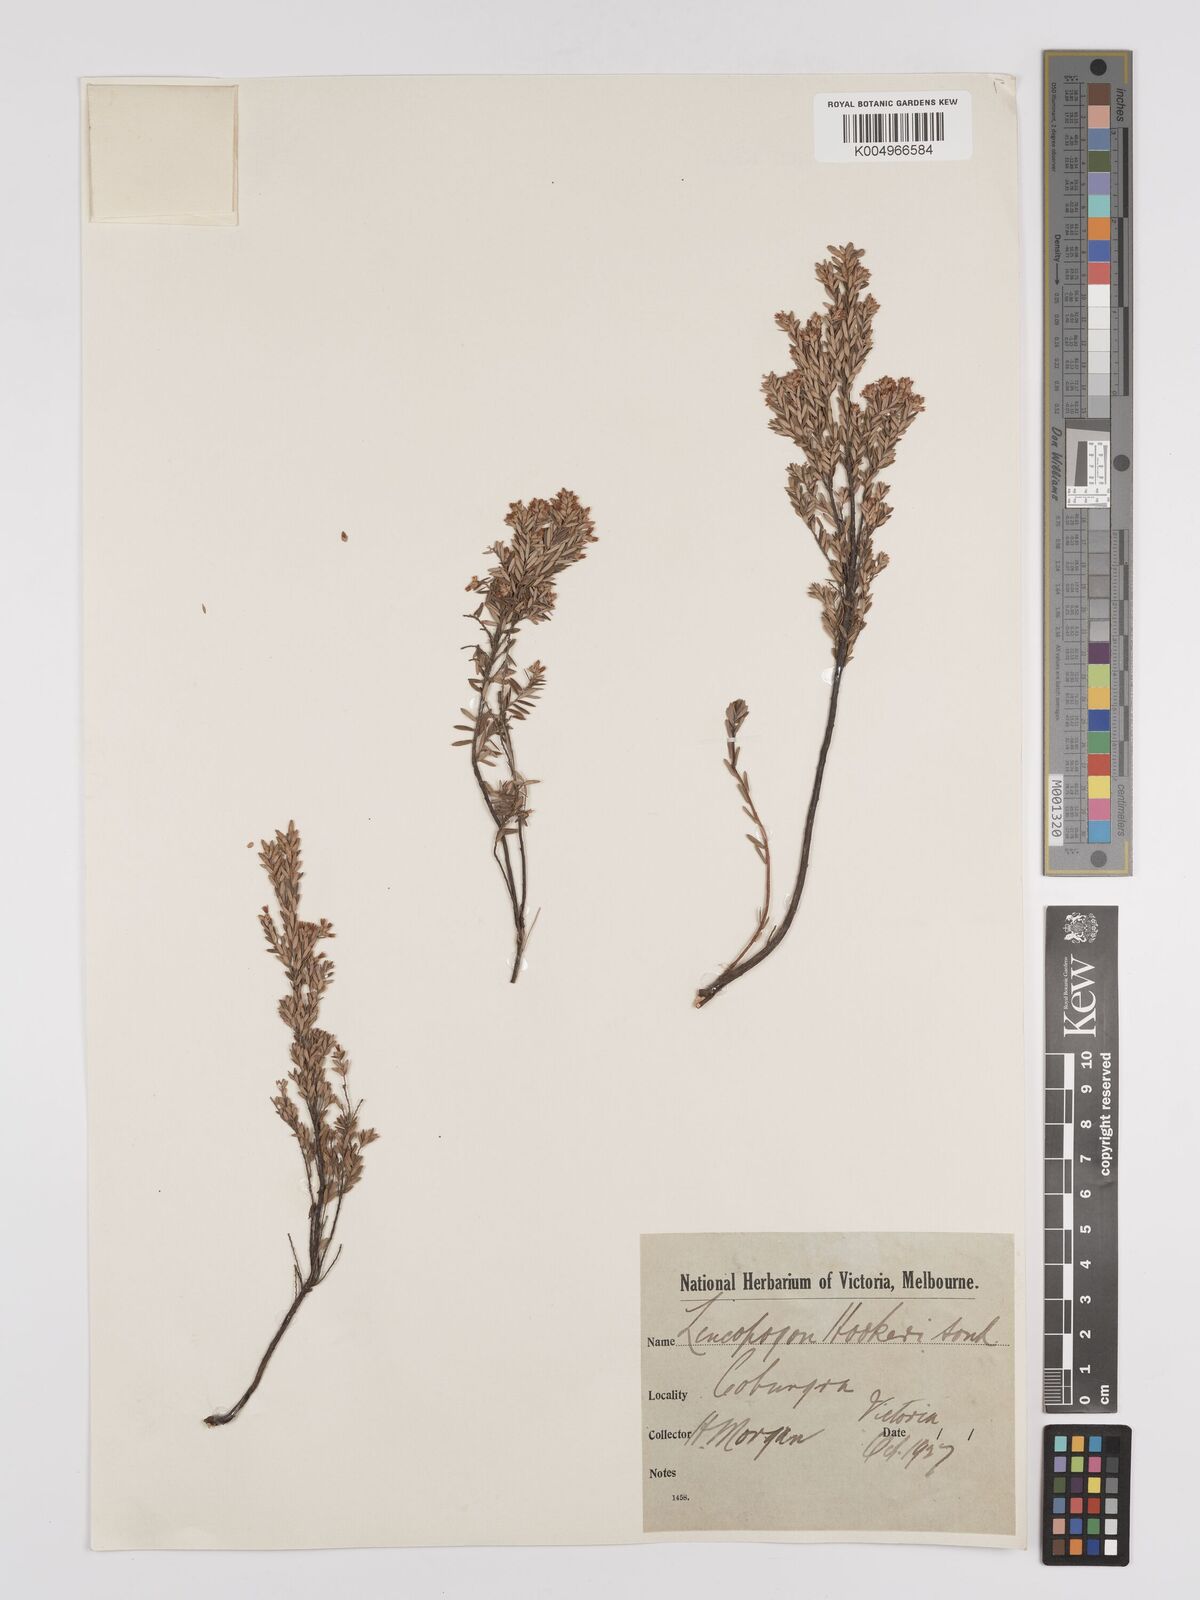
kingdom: Plantae
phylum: Tracheophyta
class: Magnoliopsida
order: Ericales
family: Ericaceae
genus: Acrothamnus
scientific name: Acrothamnus hookeri
